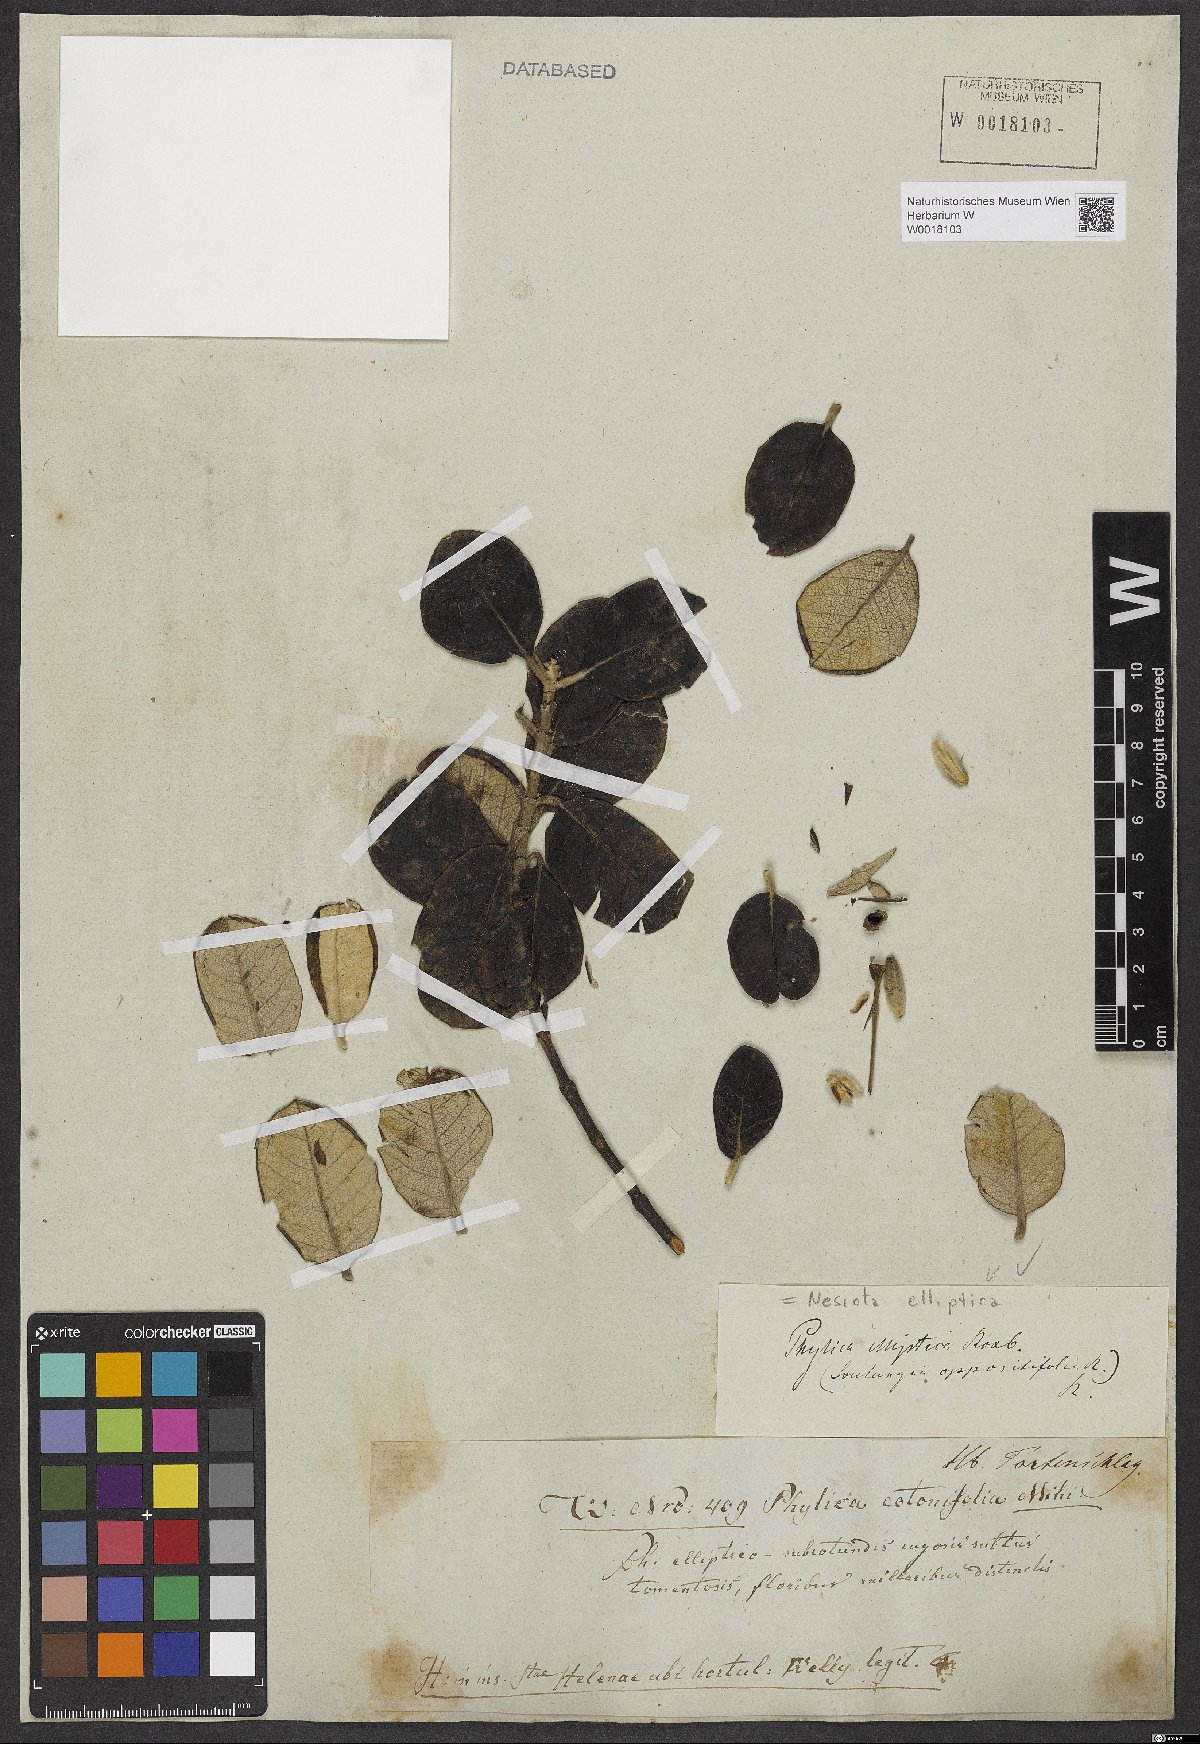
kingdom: Plantae
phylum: Tracheophyta
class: Magnoliopsida
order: Rosales
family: Rhamnaceae
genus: Nesiota
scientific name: Nesiota elliptica
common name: St helena olive
